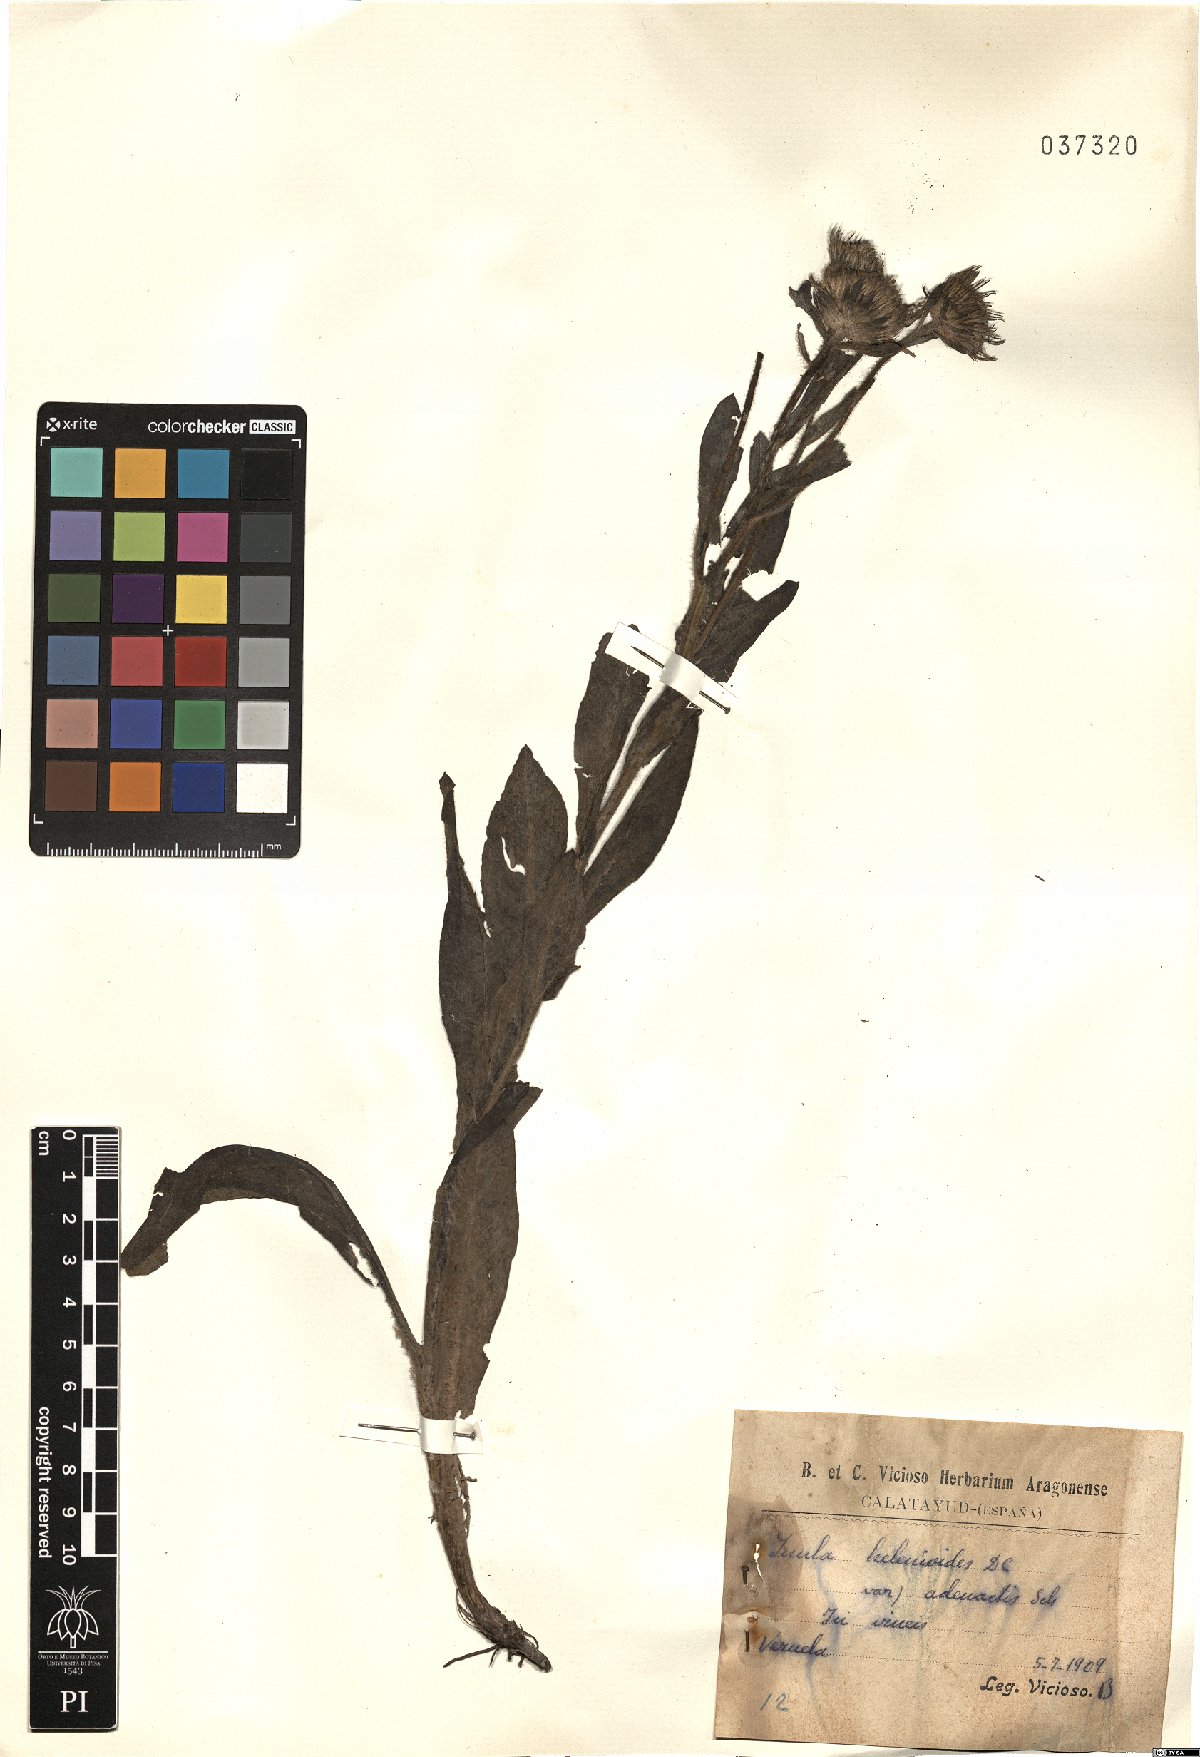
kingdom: Plantae
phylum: Tracheophyta
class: Magnoliopsida
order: Asterales
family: Asteraceae
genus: Pentanema
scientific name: Pentanema helenioides
